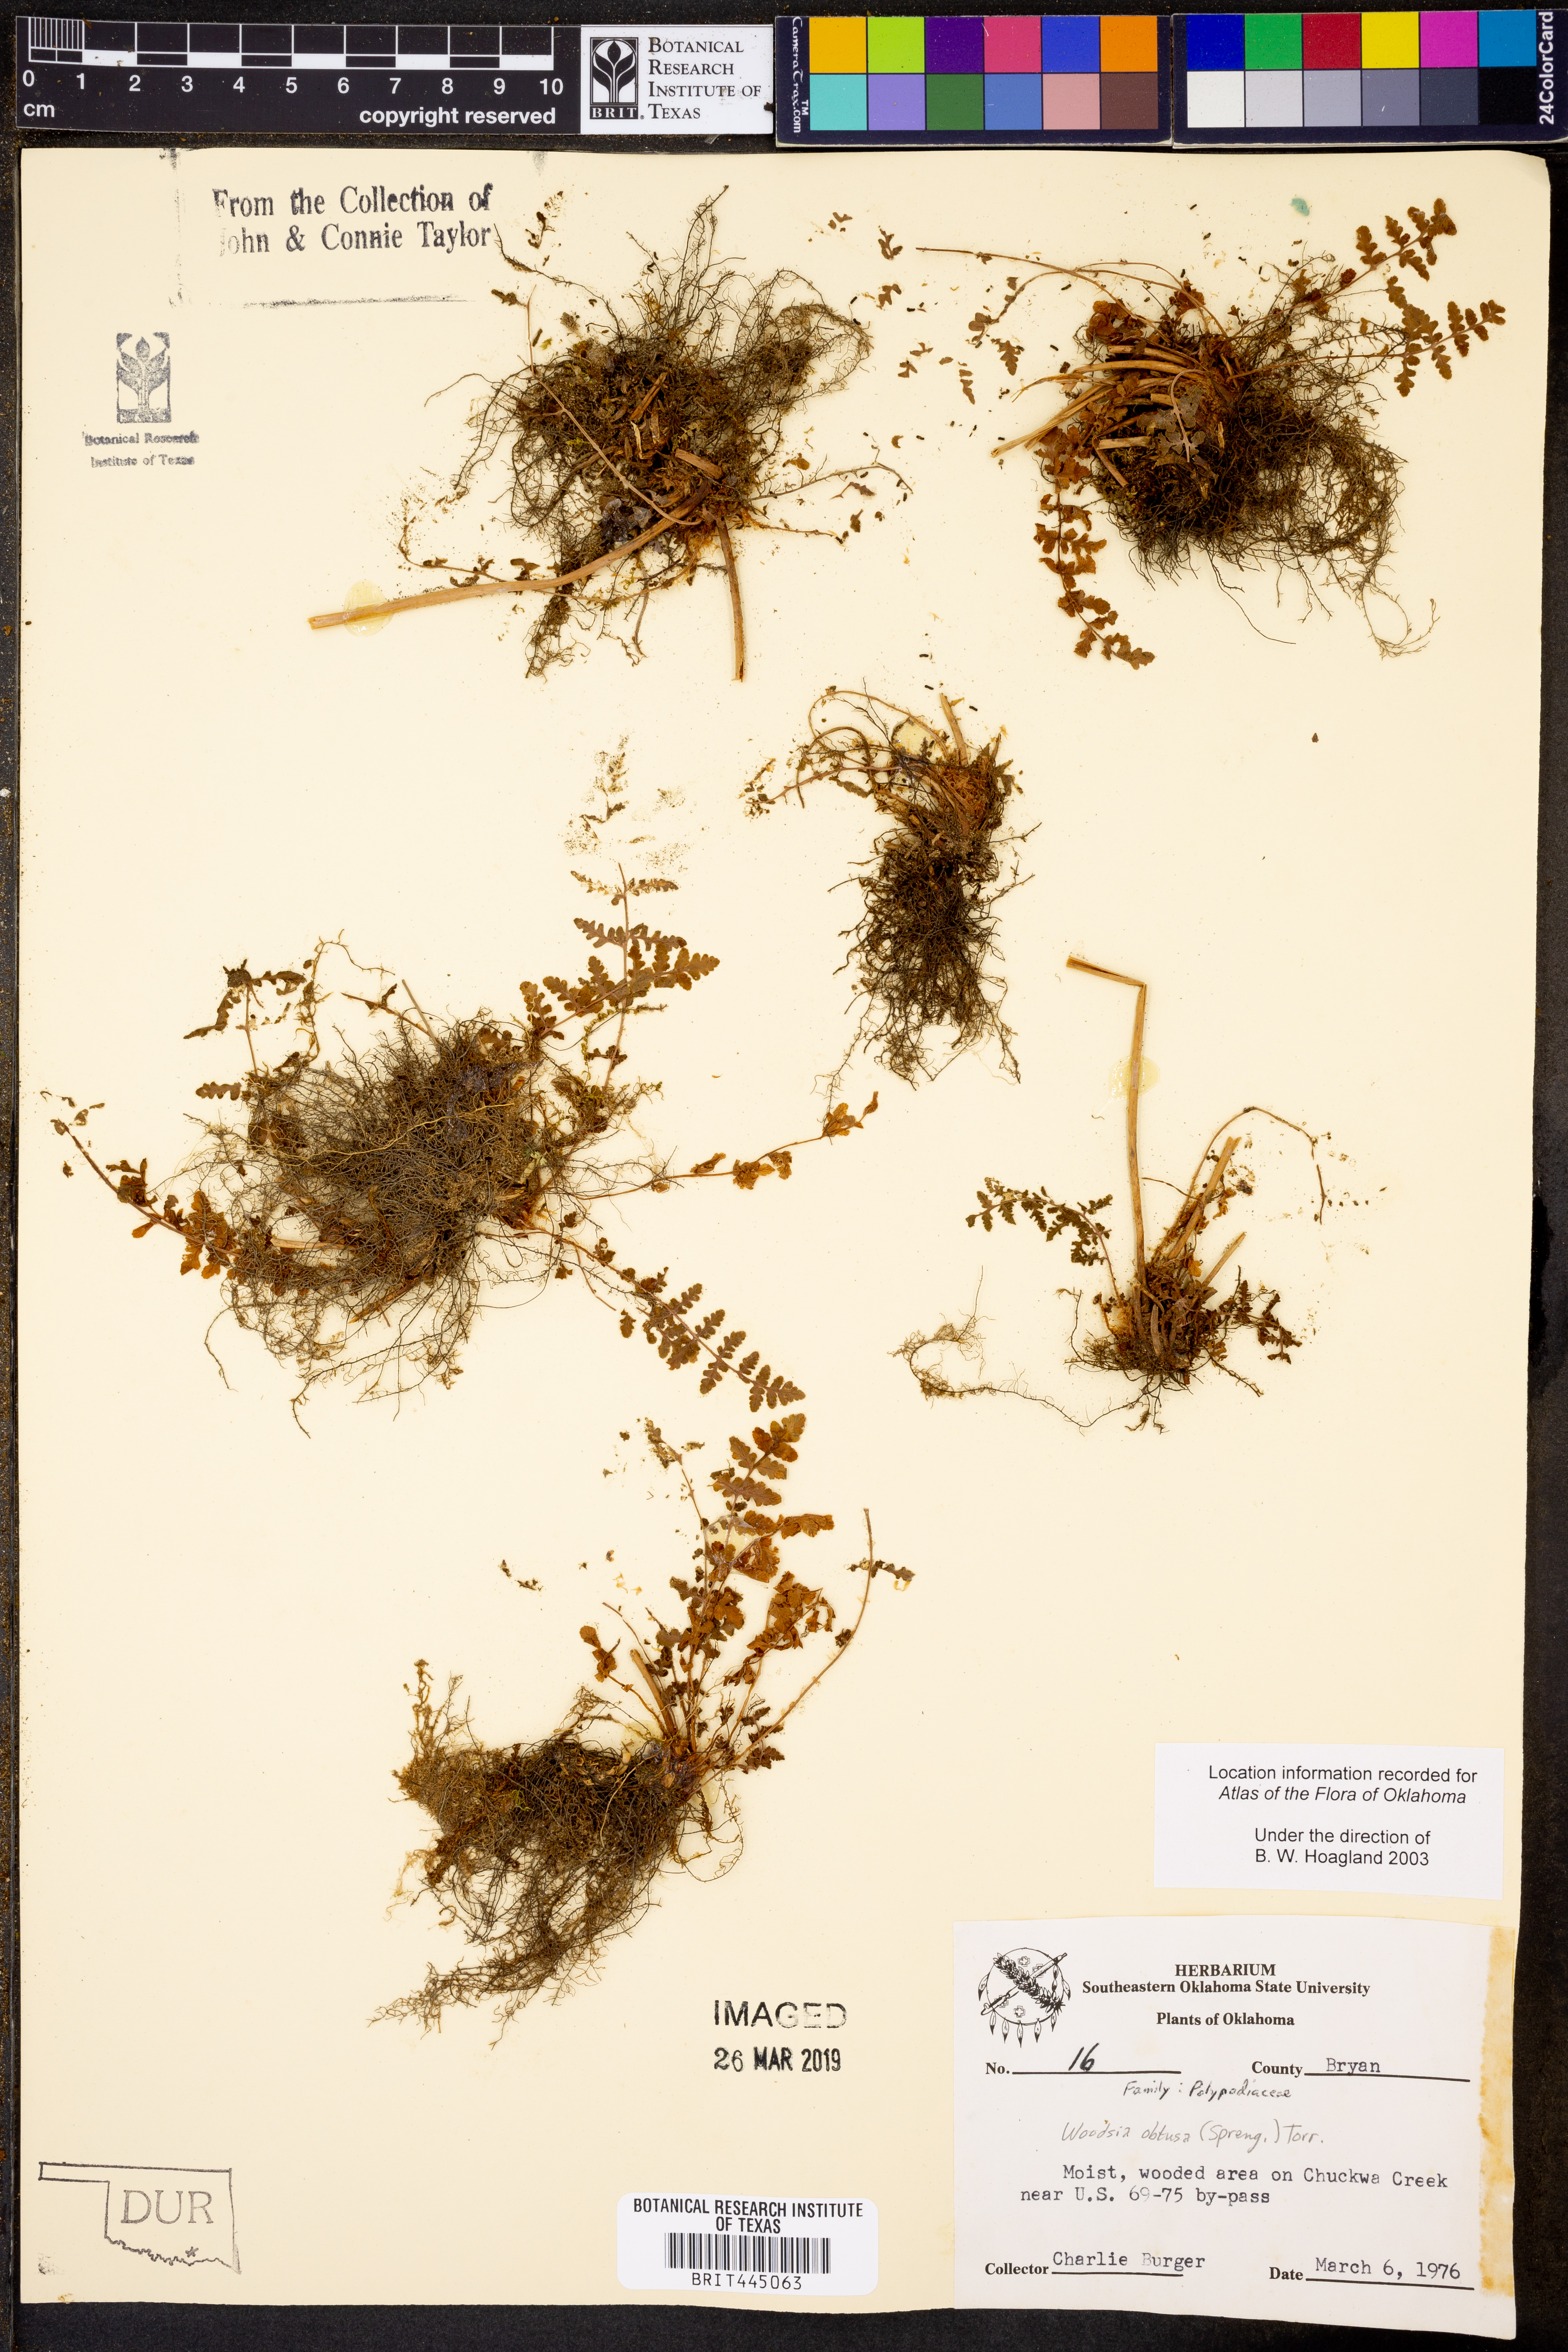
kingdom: Plantae
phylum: Tracheophyta
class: Polypodiopsida
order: Polypodiales
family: Woodsiaceae
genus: Physematium
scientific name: Physematium obtusum
